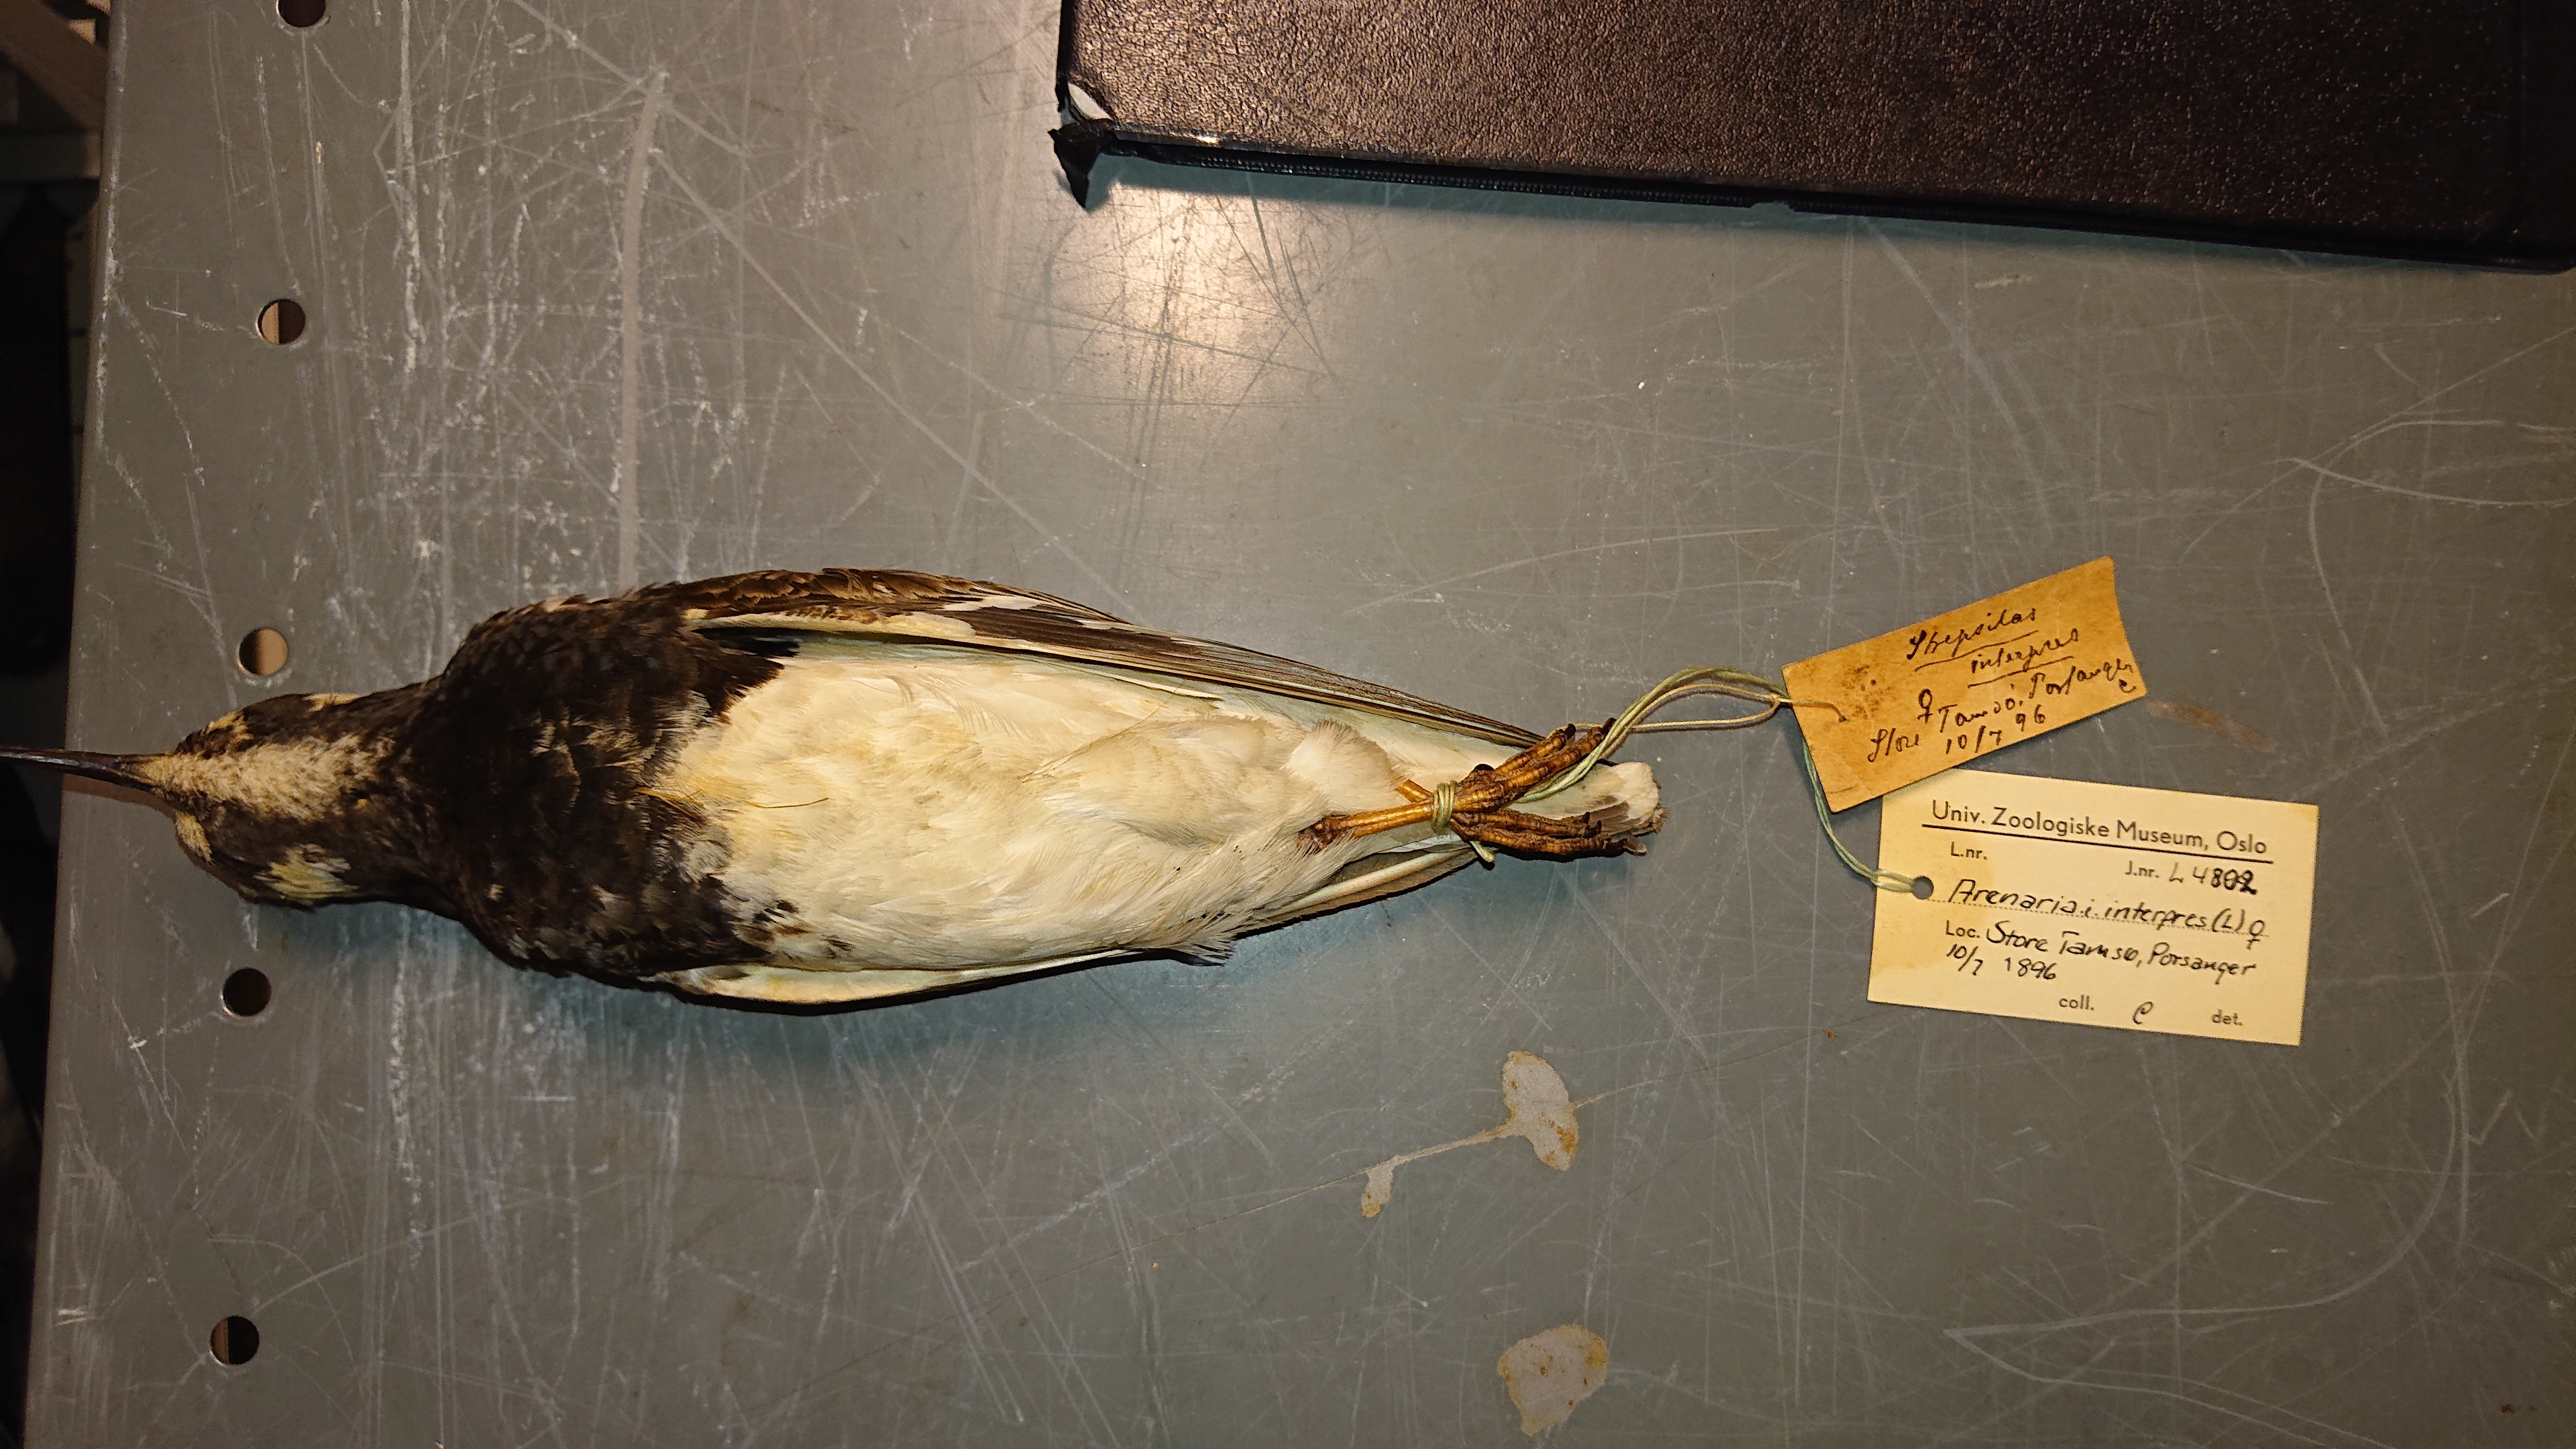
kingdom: Animalia
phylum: Chordata
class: Aves
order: Charadriiformes
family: Scolopacidae
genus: Arenaria
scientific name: Arenaria interpres
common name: Ruddy turnstone
